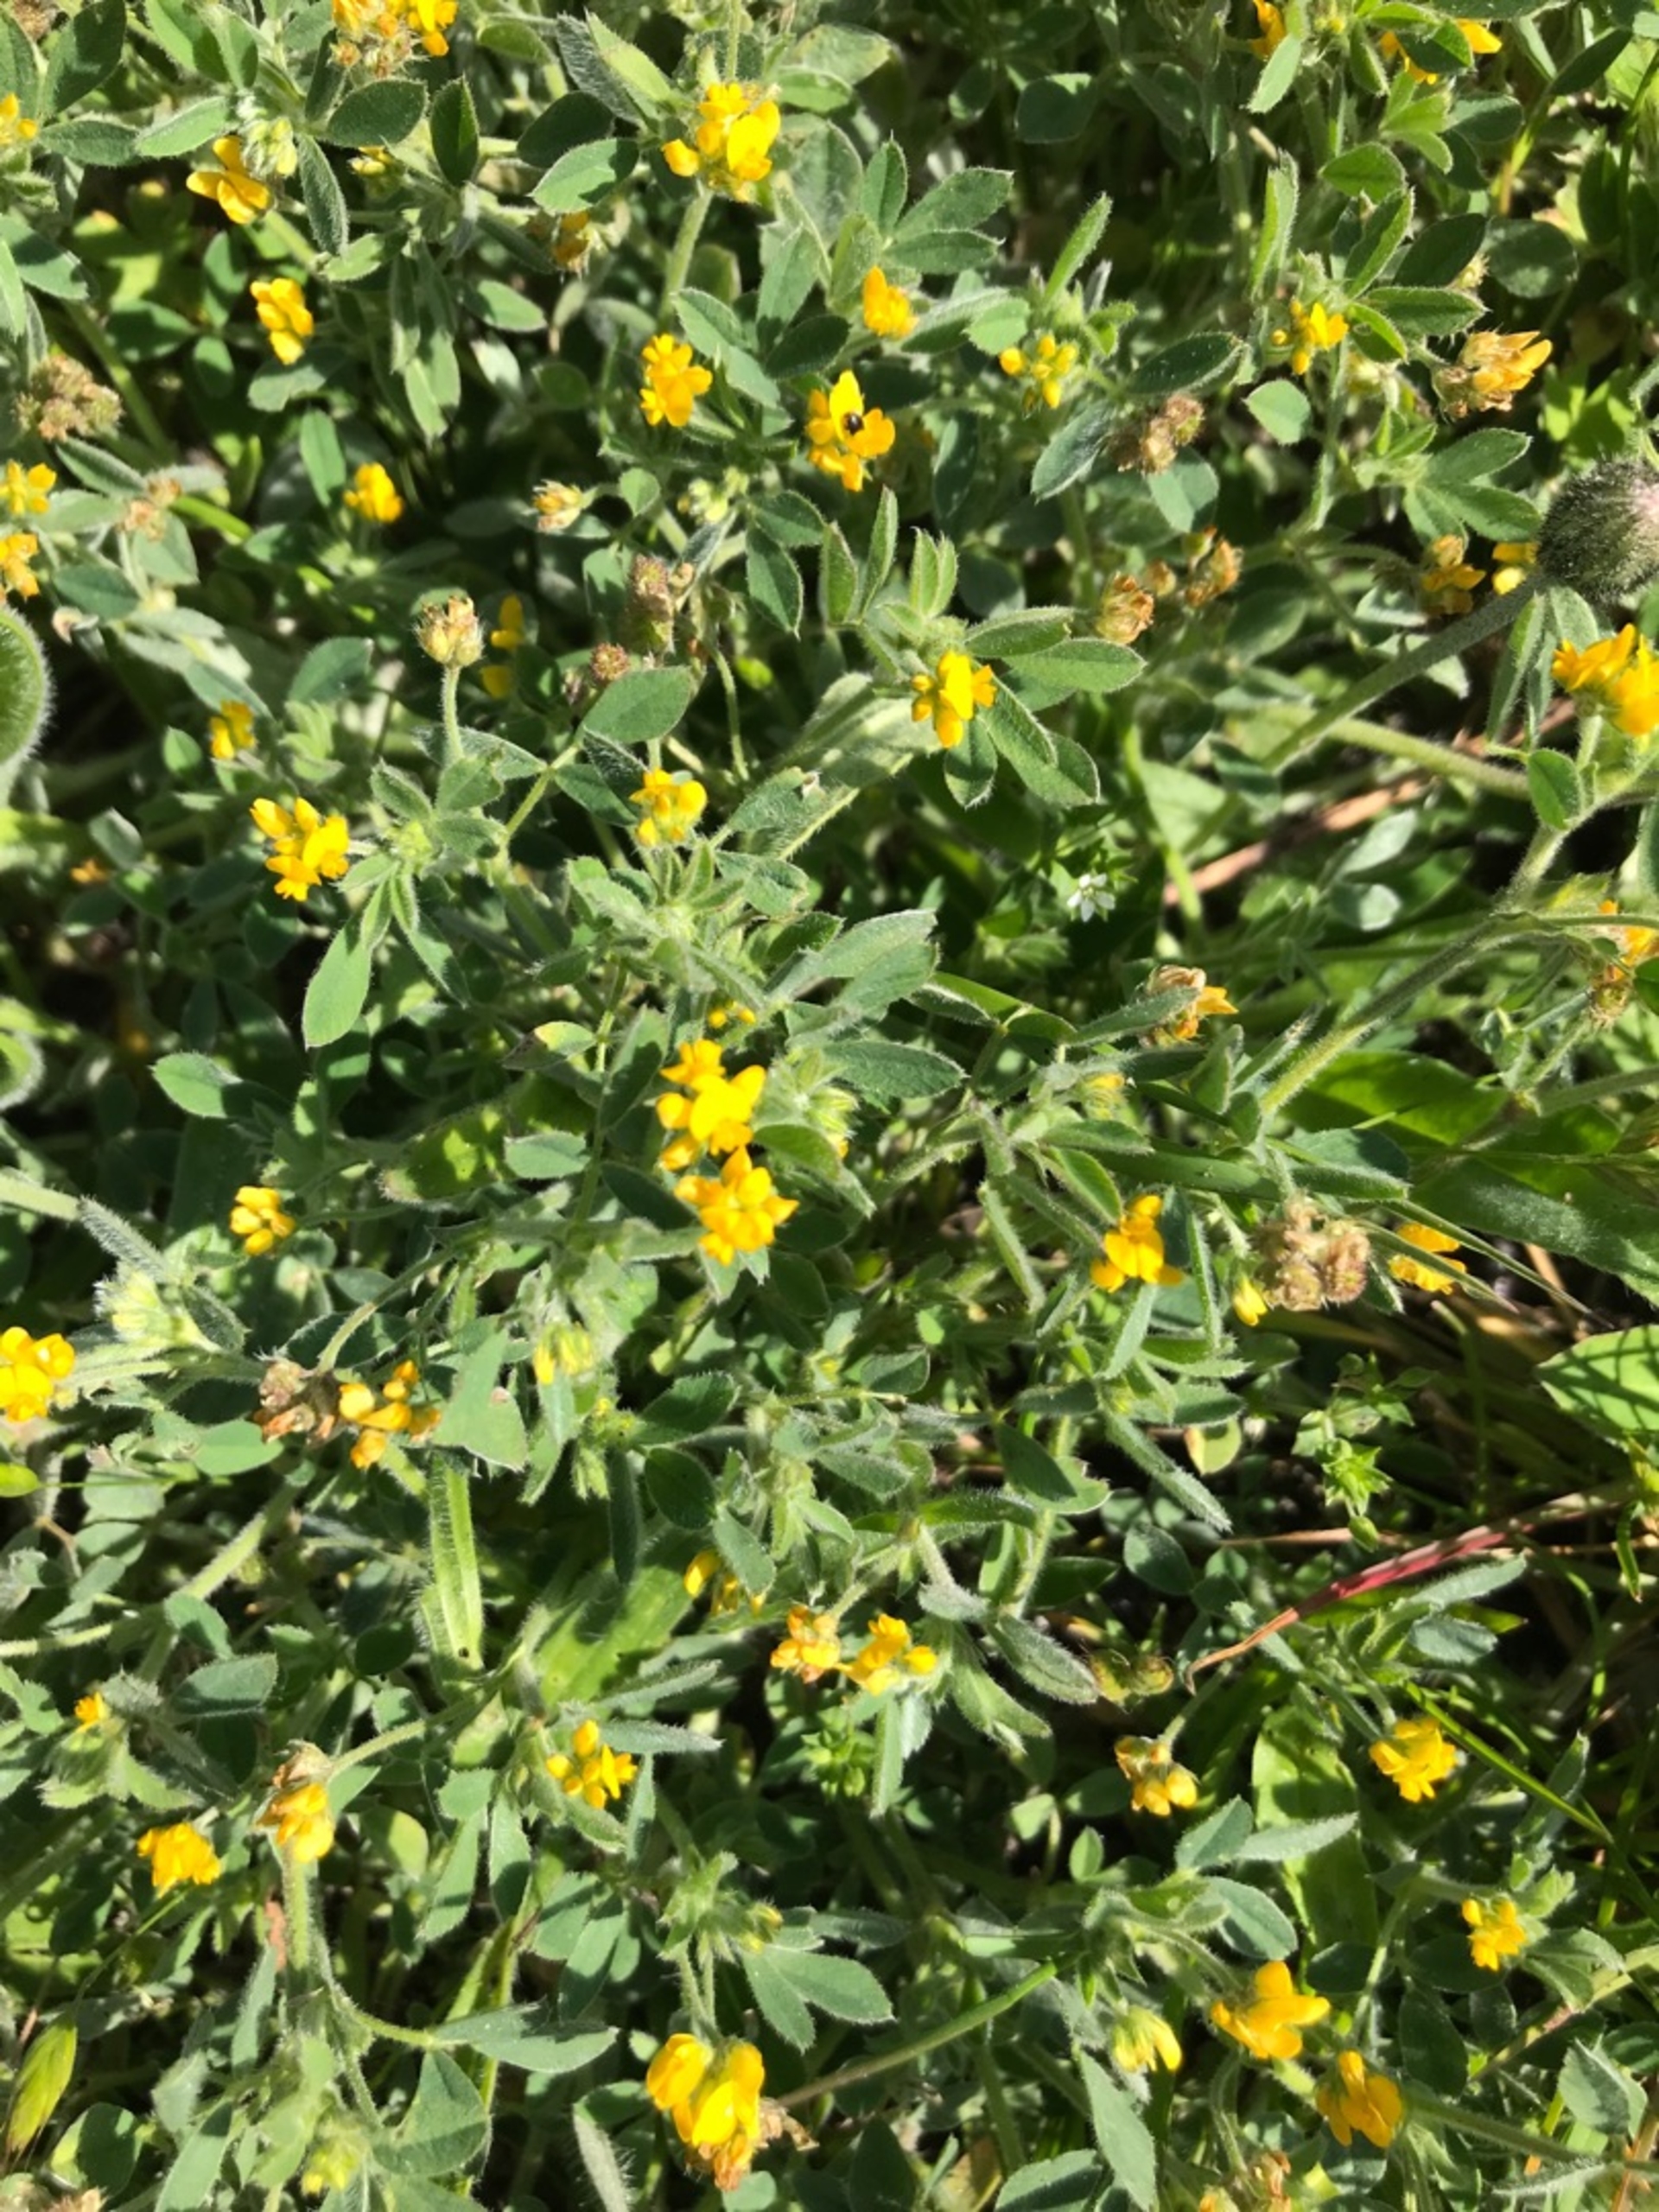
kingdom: Plantae
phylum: Tracheophyta
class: Magnoliopsida
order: Fabales
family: Fabaceae
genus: Medicago
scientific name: Medicago minima
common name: Liden sneglebælg
